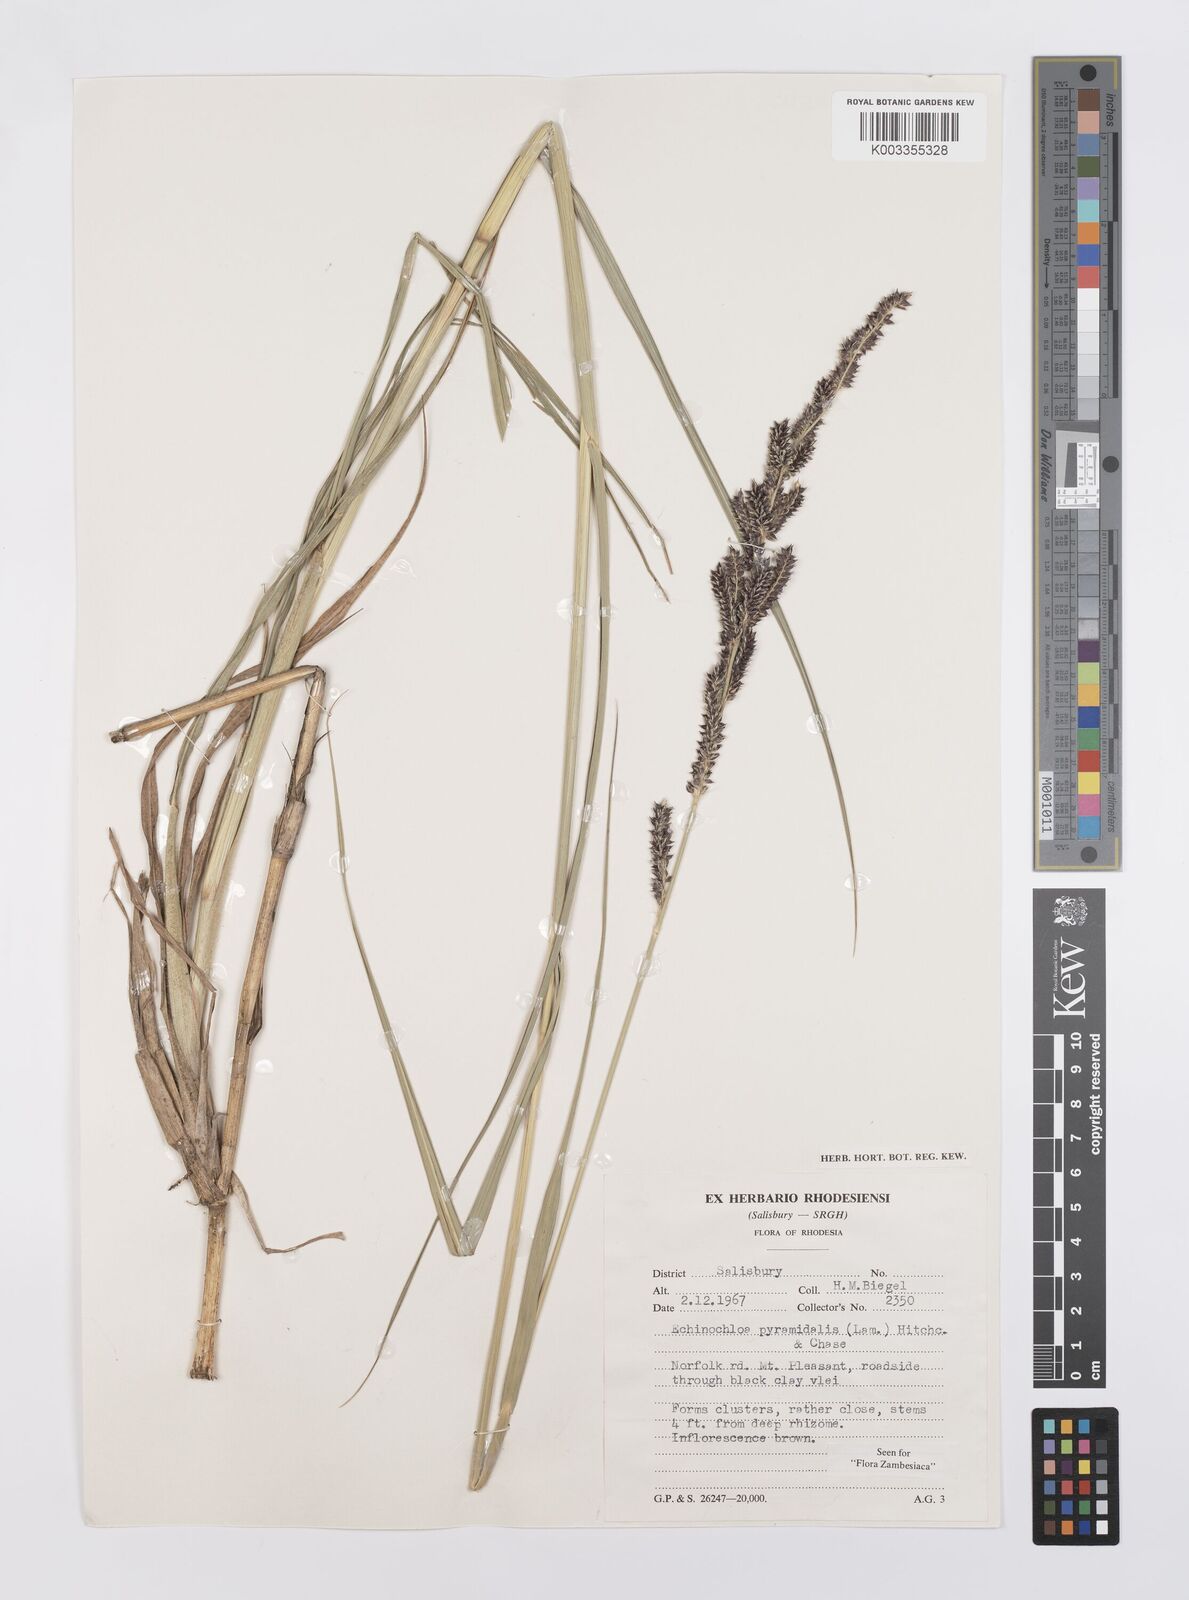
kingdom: Plantae
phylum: Tracheophyta
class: Liliopsida
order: Poales
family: Poaceae
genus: Echinochloa
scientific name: Echinochloa pyramidalis
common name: Antelope grass
